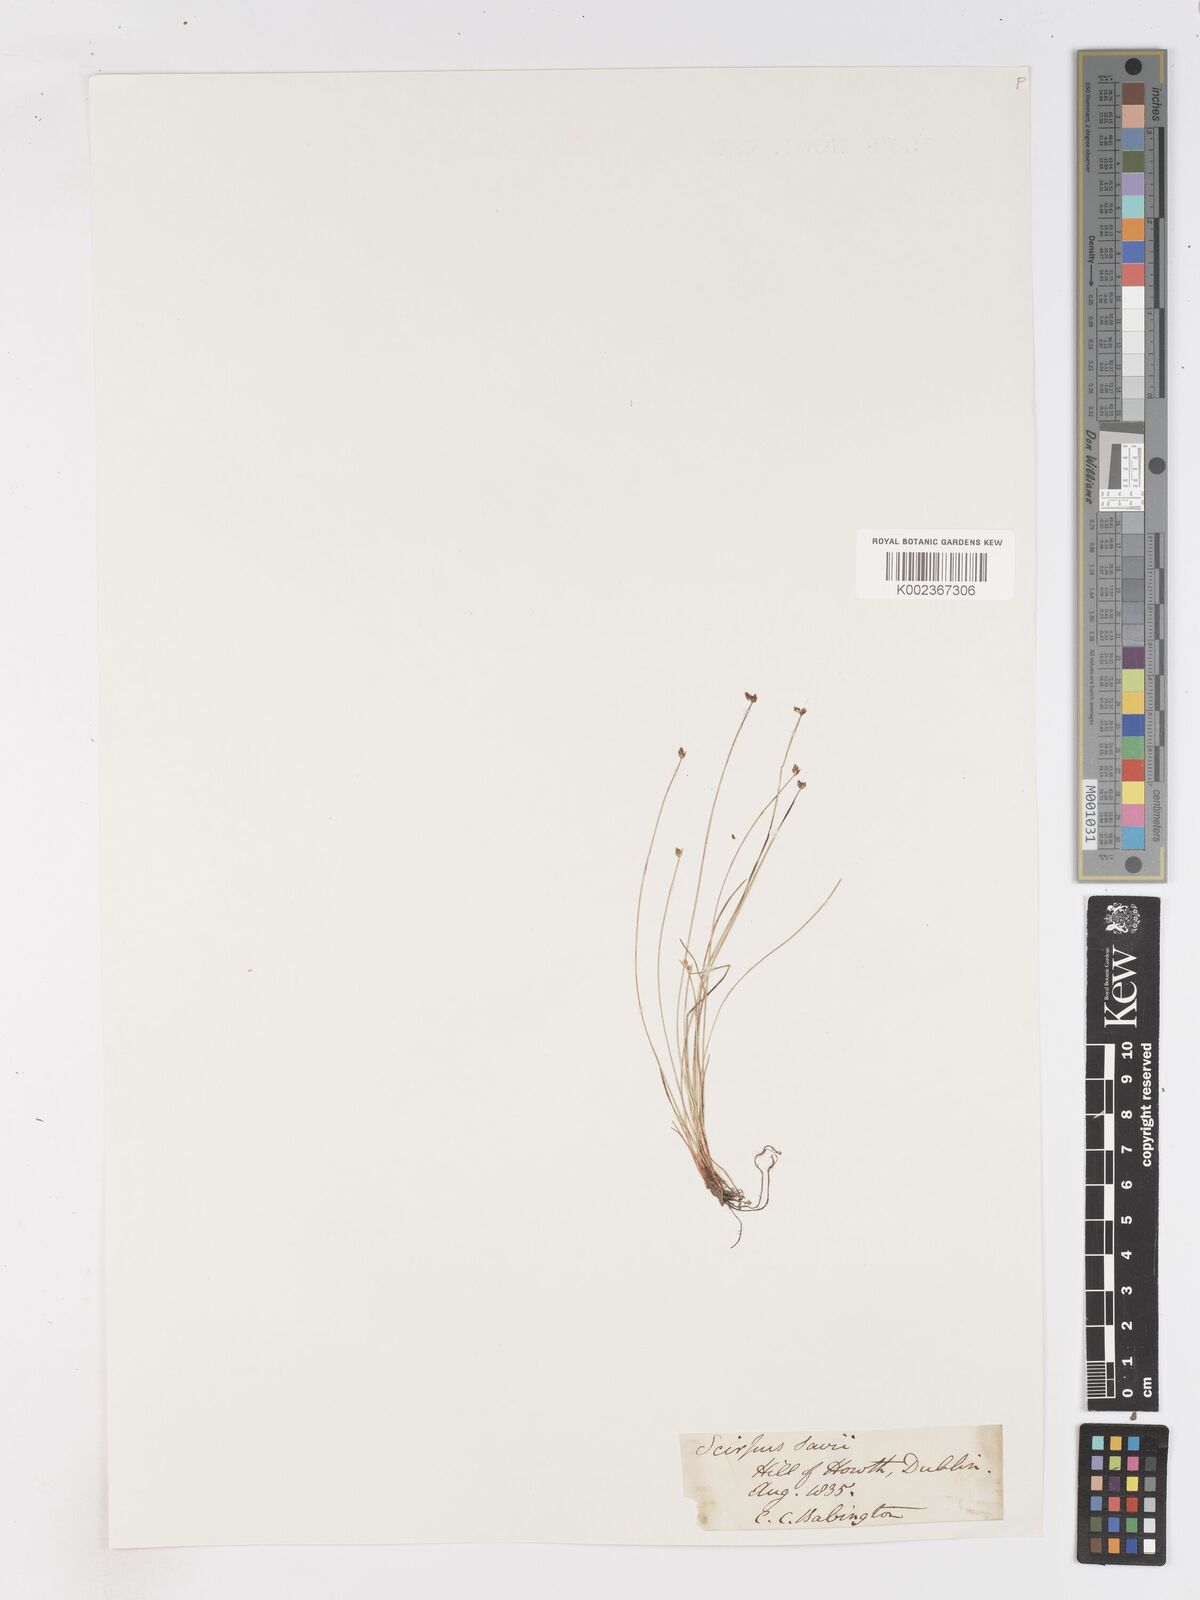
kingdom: Plantae
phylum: Tracheophyta
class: Liliopsida
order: Poales
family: Cyperaceae
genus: Isolepis
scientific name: Isolepis cernua
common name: Slender club-rush
